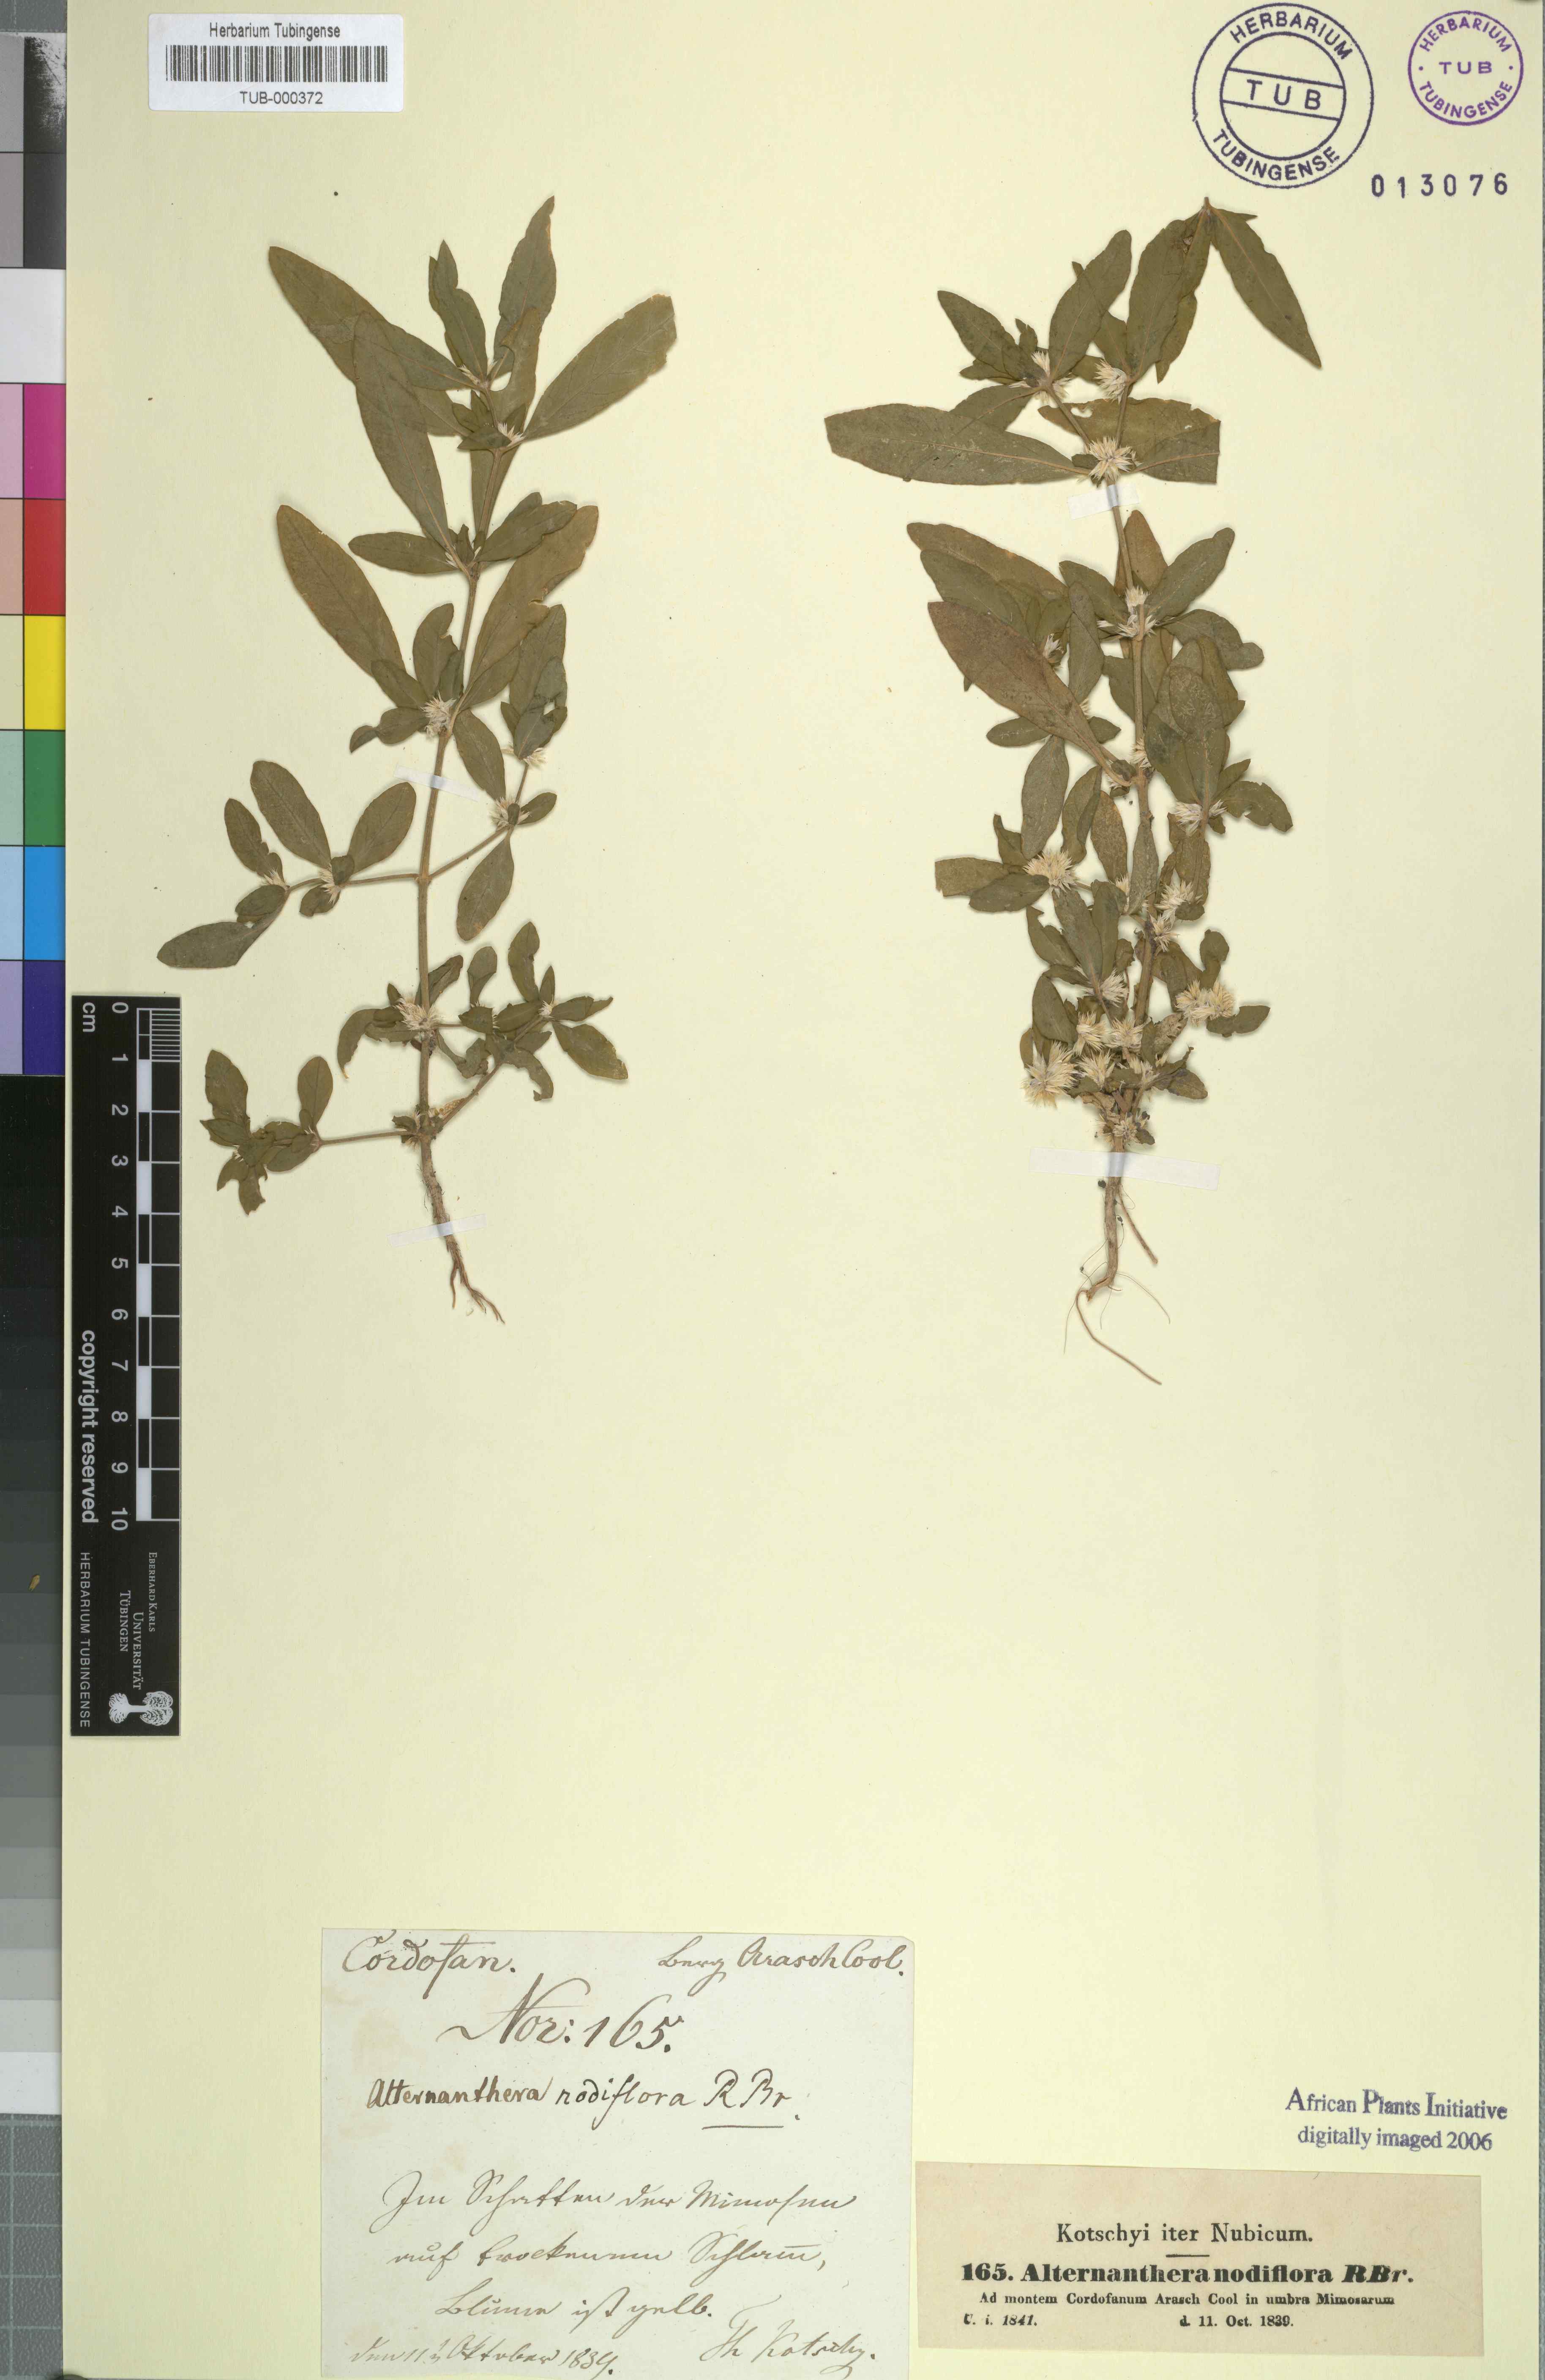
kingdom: Plantae
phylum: Tracheophyta
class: Magnoliopsida
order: Caryophyllales
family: Amaranthaceae
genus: Alternanthera
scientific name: Alternanthera sessilis
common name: Sessile joyweed
